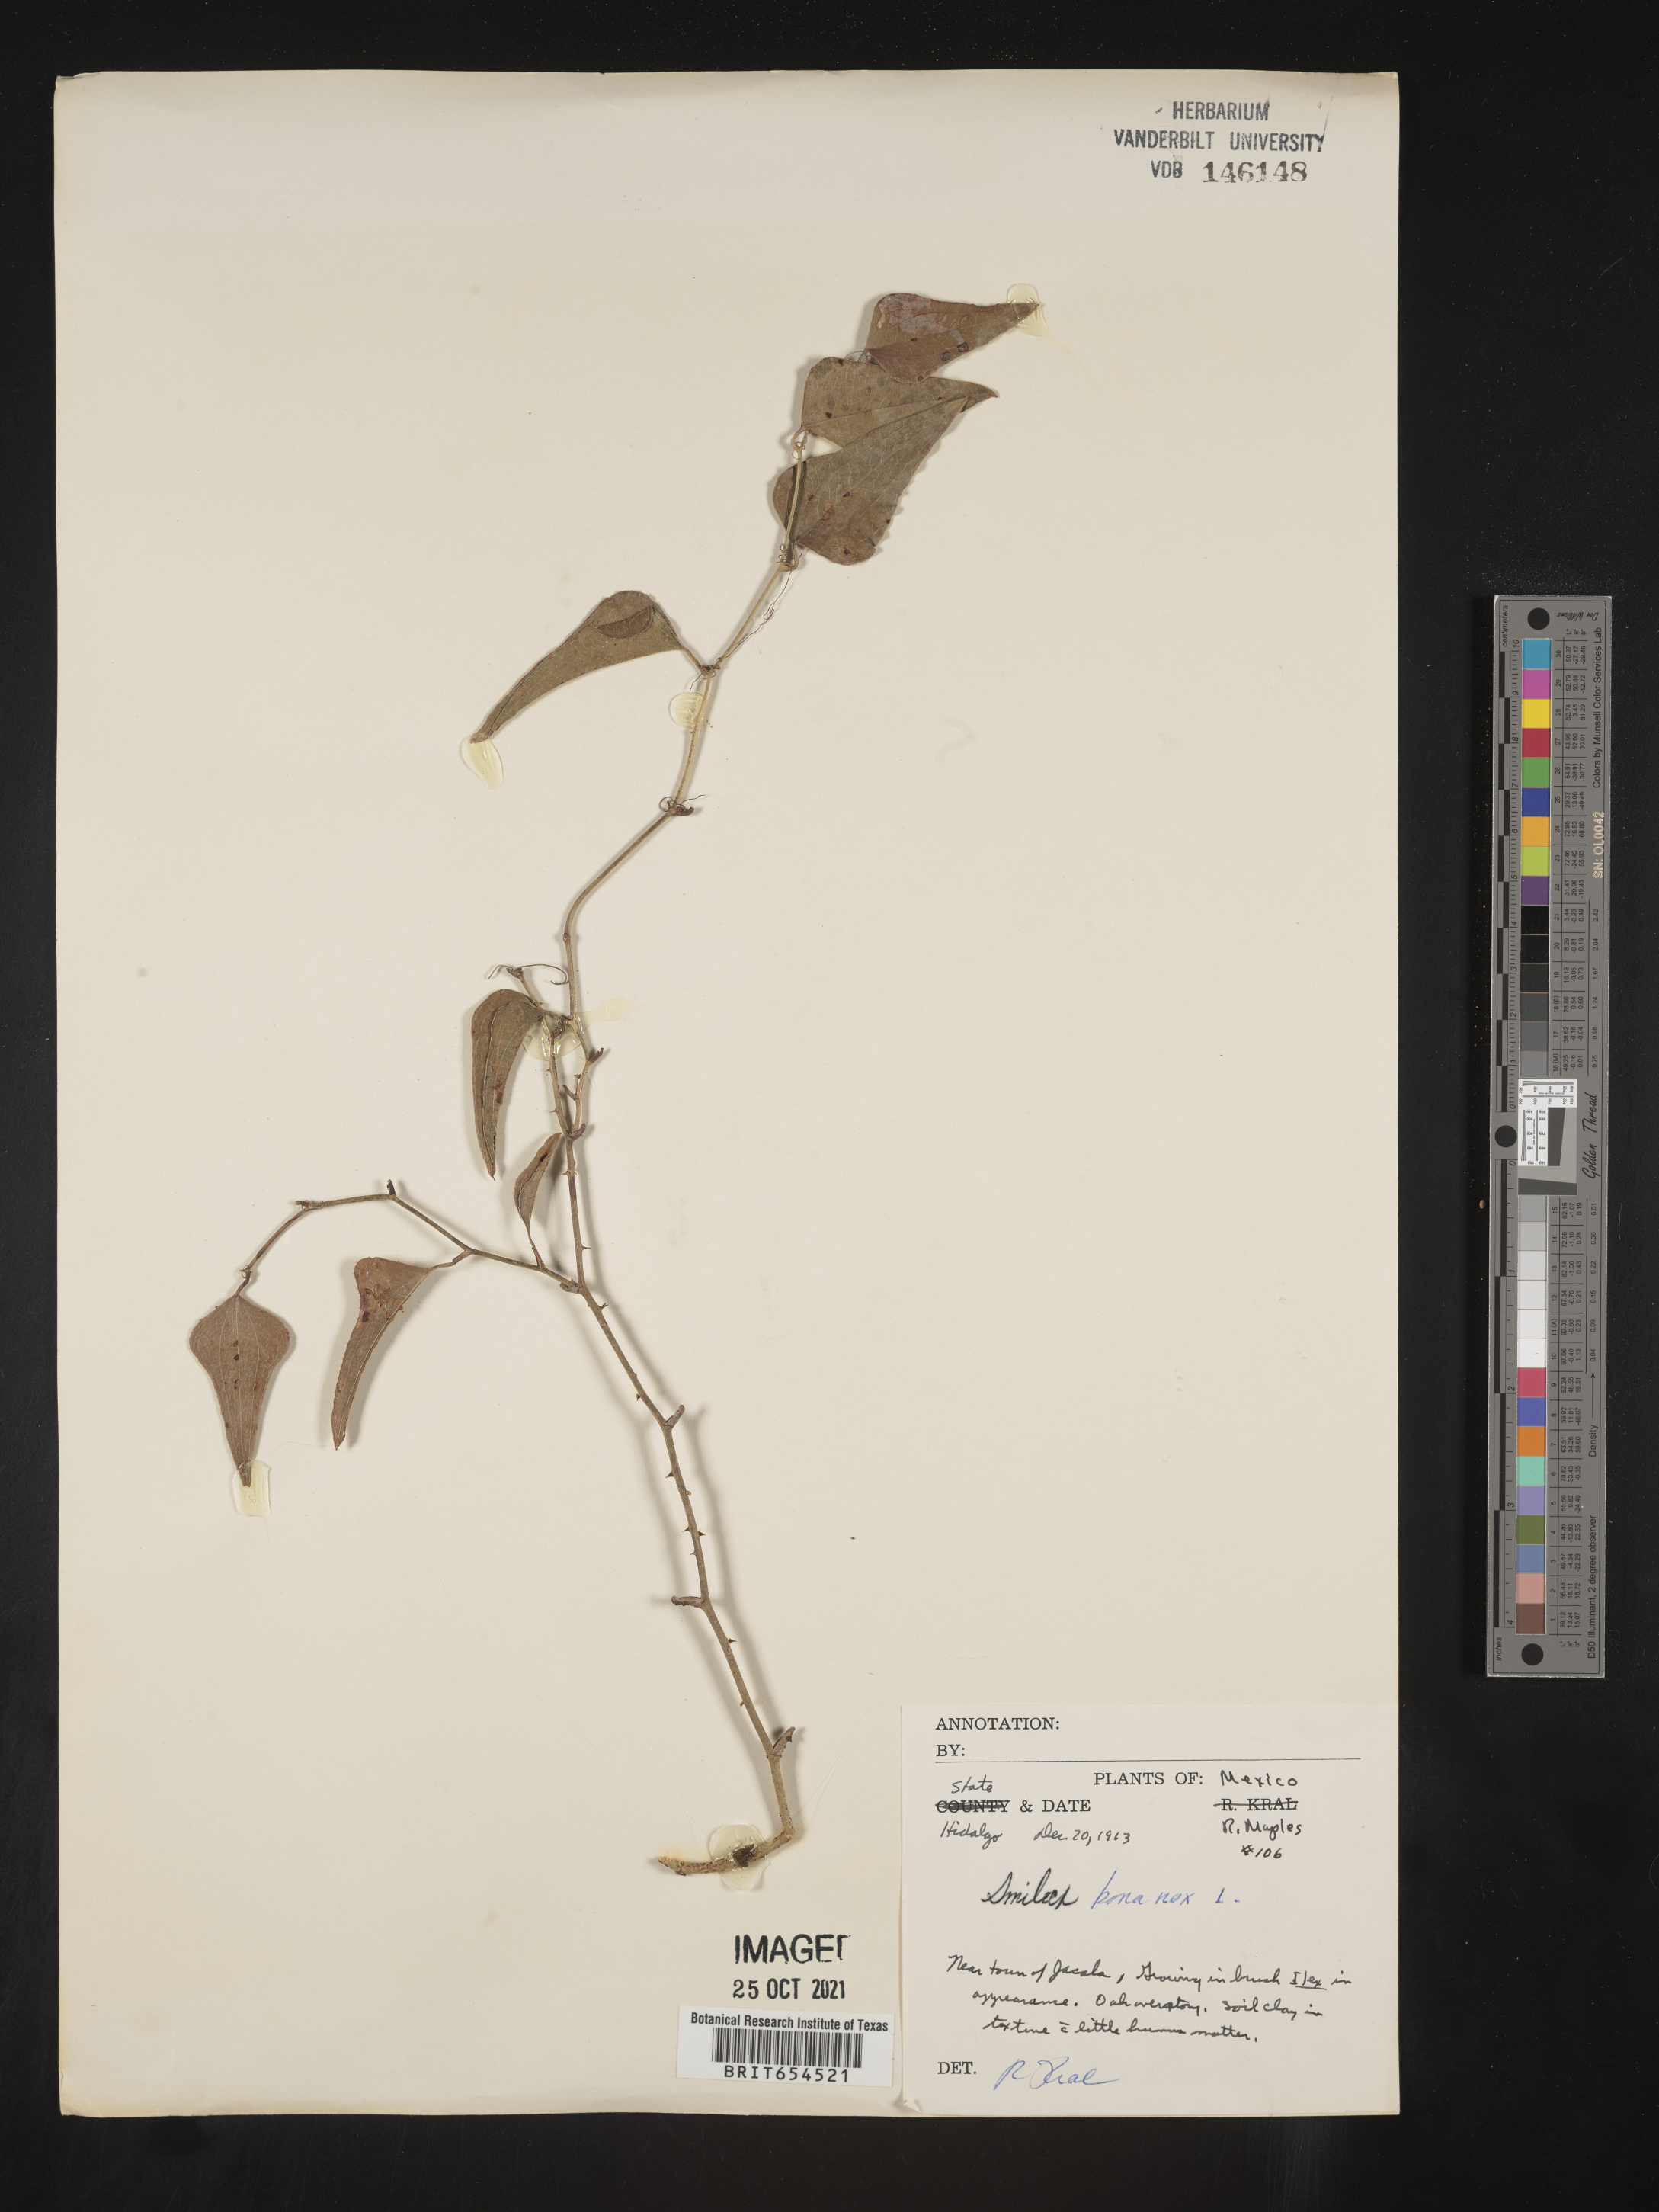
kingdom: Plantae
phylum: Tracheophyta
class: Liliopsida
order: Liliales
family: Smilacaceae
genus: Smilax
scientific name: Smilax
